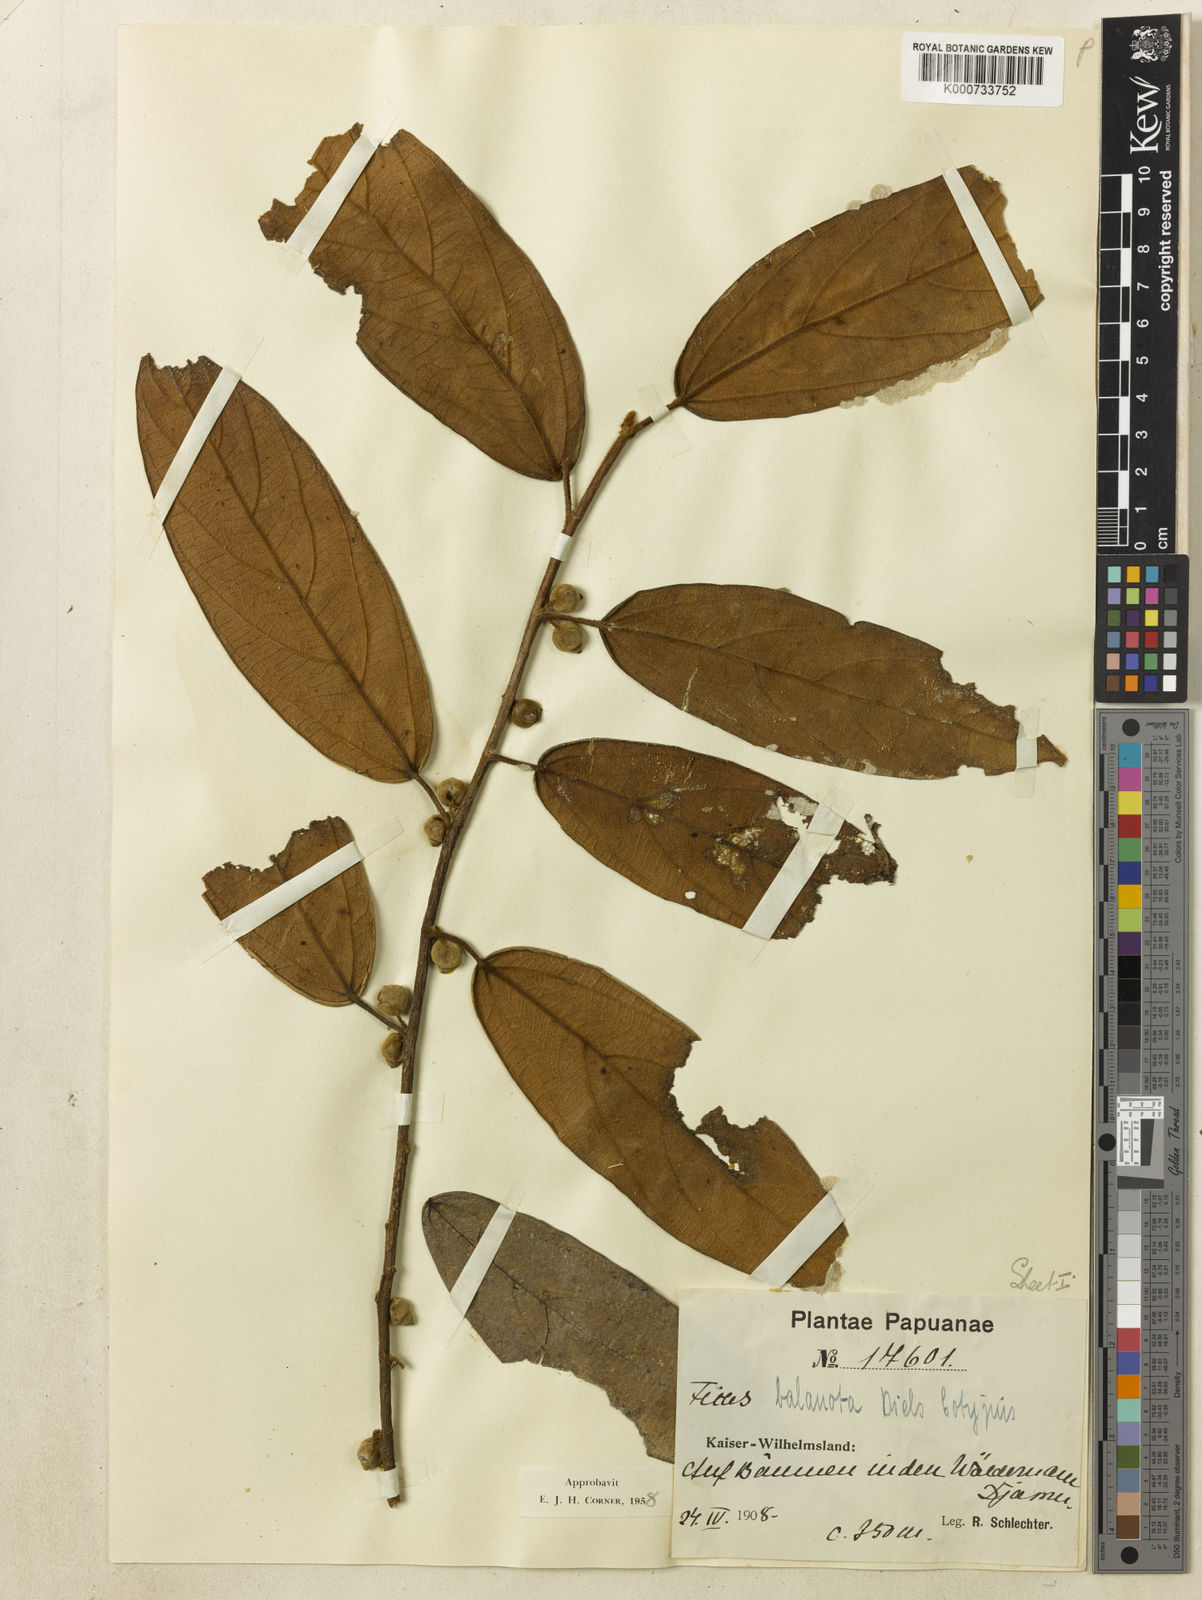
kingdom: Plantae
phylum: Tracheophyta
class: Magnoliopsida
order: Rosales
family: Moraceae
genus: Ficus
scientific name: Ficus baeuerlenii
